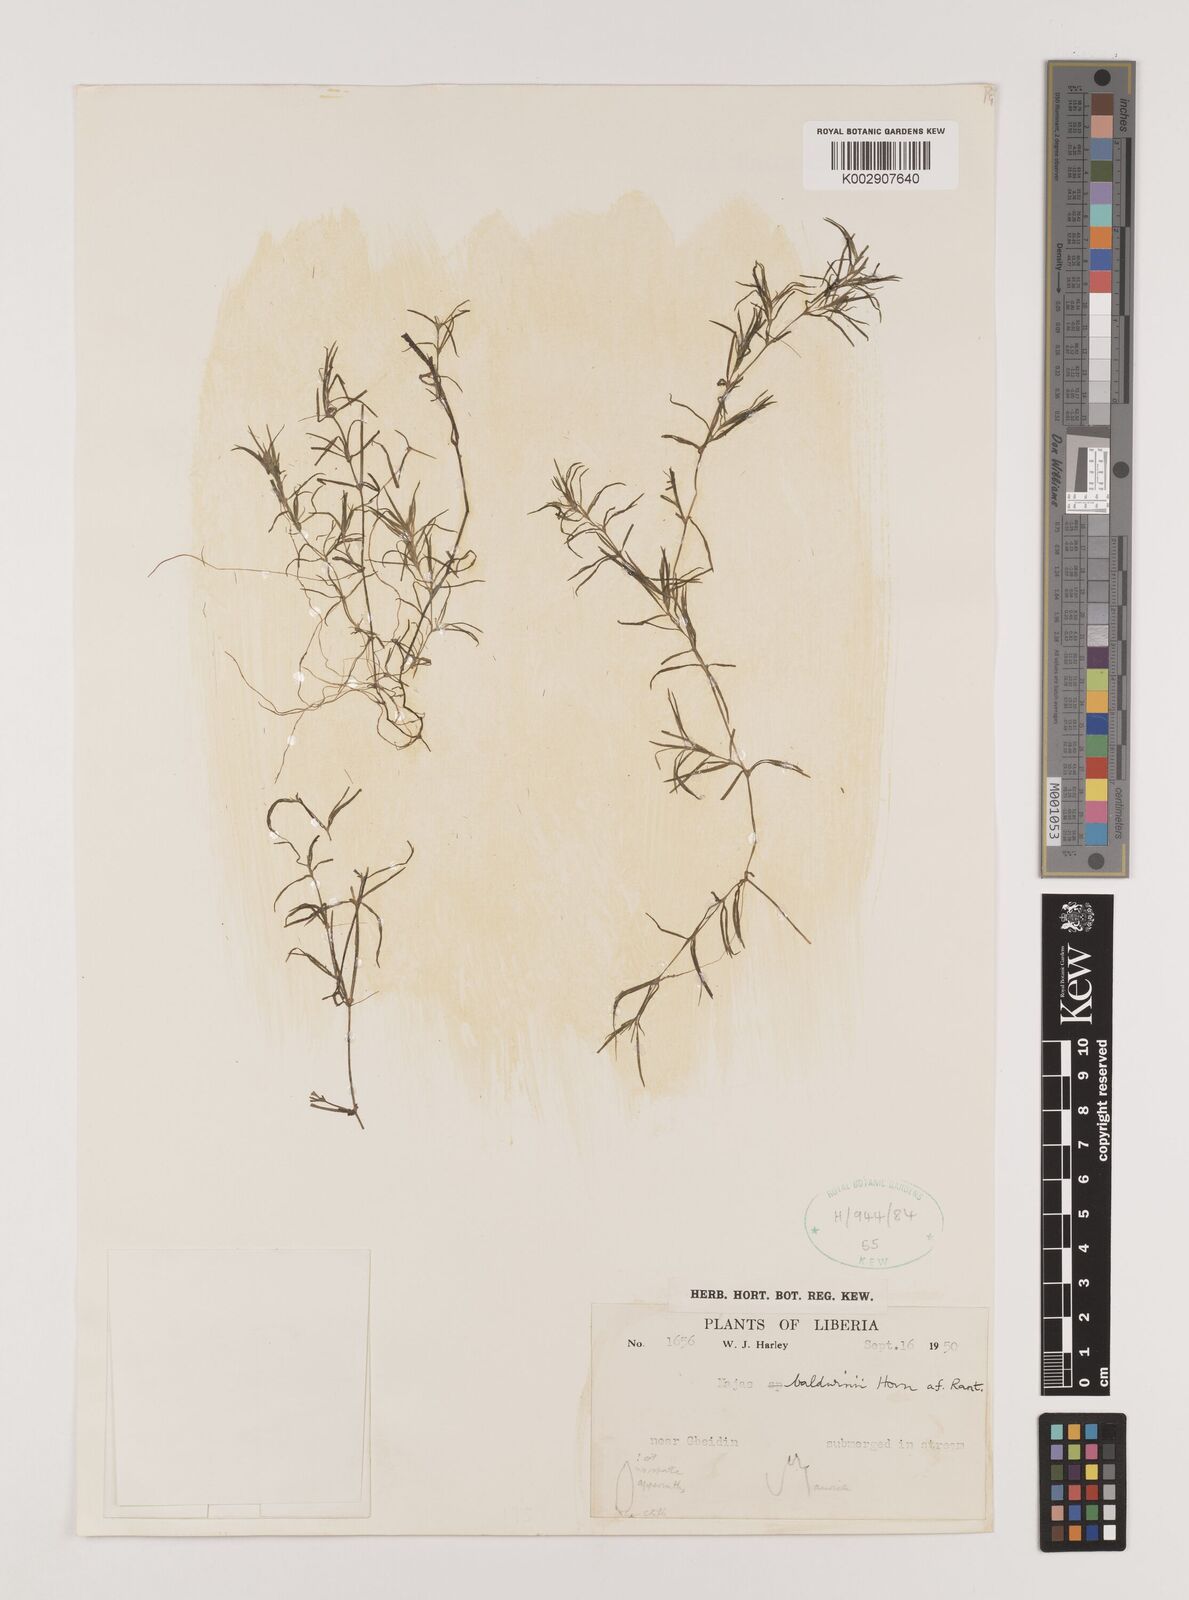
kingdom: Plantae
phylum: Tracheophyta
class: Liliopsida
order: Alismatales
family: Hydrocharitaceae
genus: Najas
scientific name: Najas baldwinii
